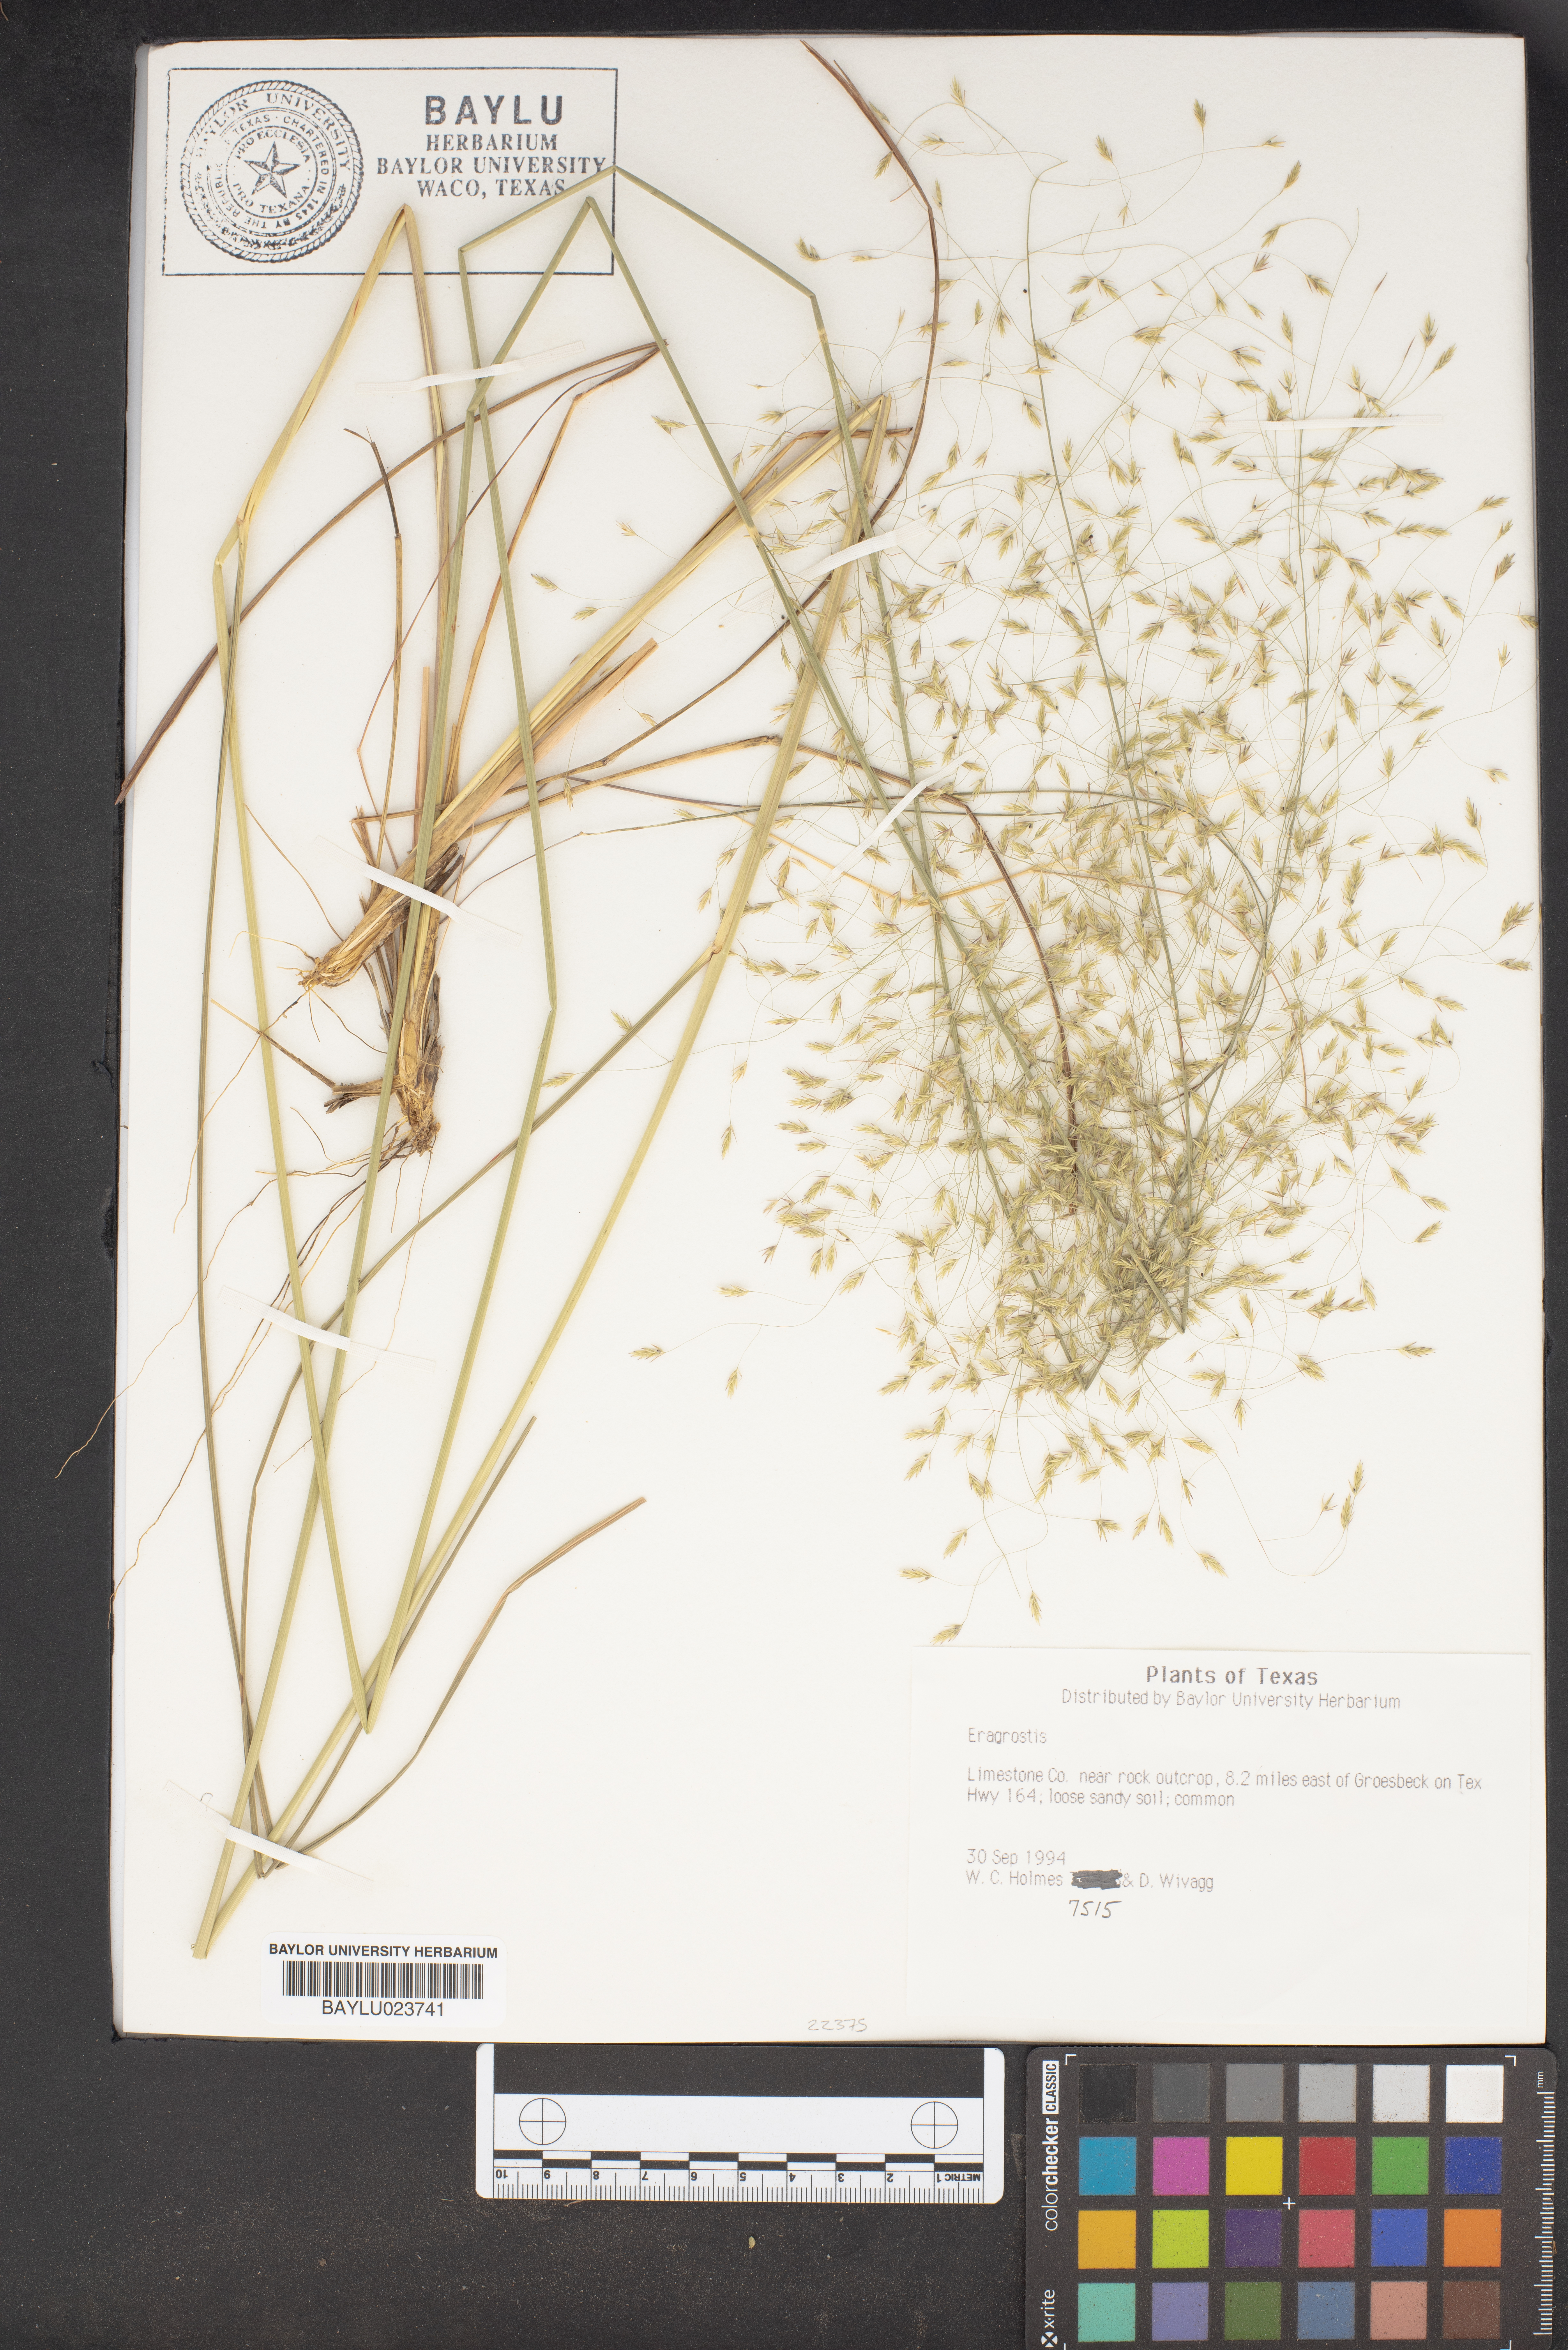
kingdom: Plantae
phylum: Tracheophyta
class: Liliopsida
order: Poales
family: Poaceae
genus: Eragrostis
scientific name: Eragrostis
